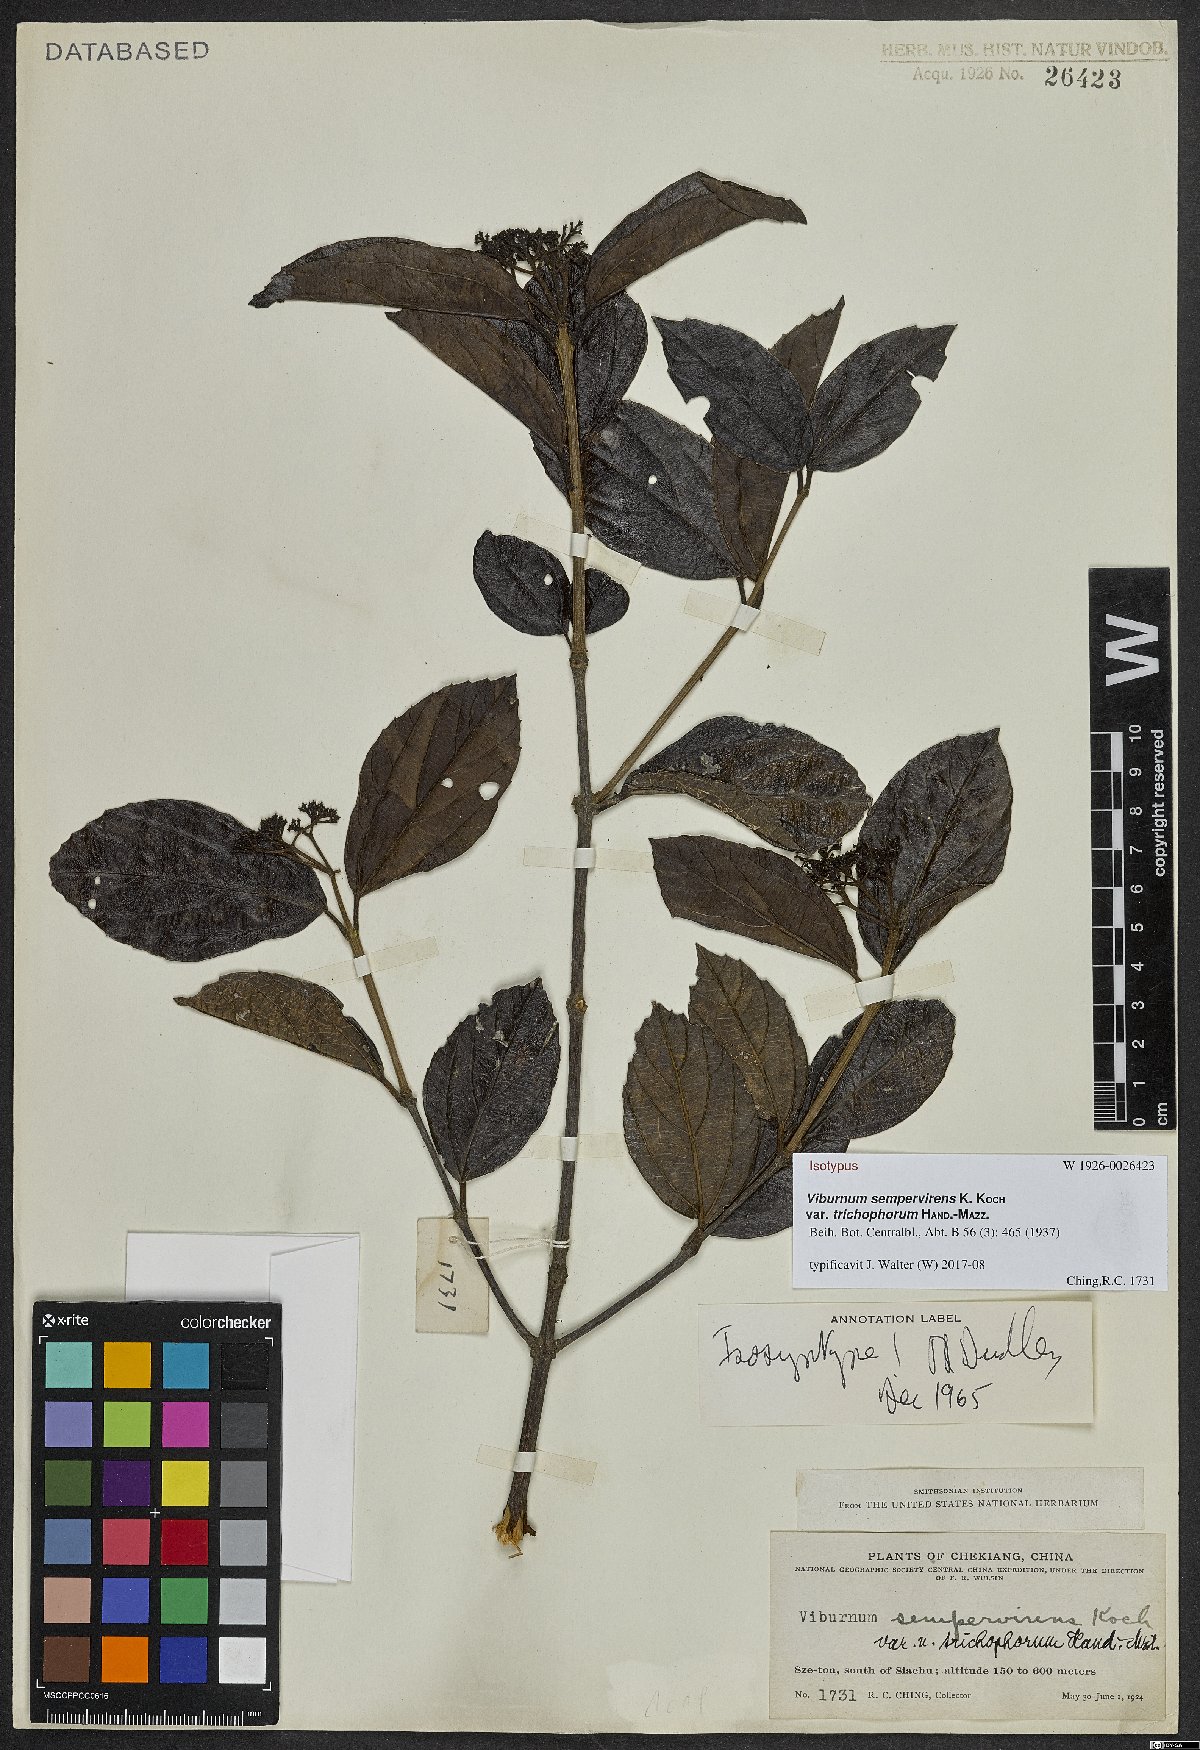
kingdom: Plantae
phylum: Tracheophyta
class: Magnoliopsida
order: Dipsacales
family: Viburnaceae
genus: Viburnum
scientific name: Viburnum sempervirens
